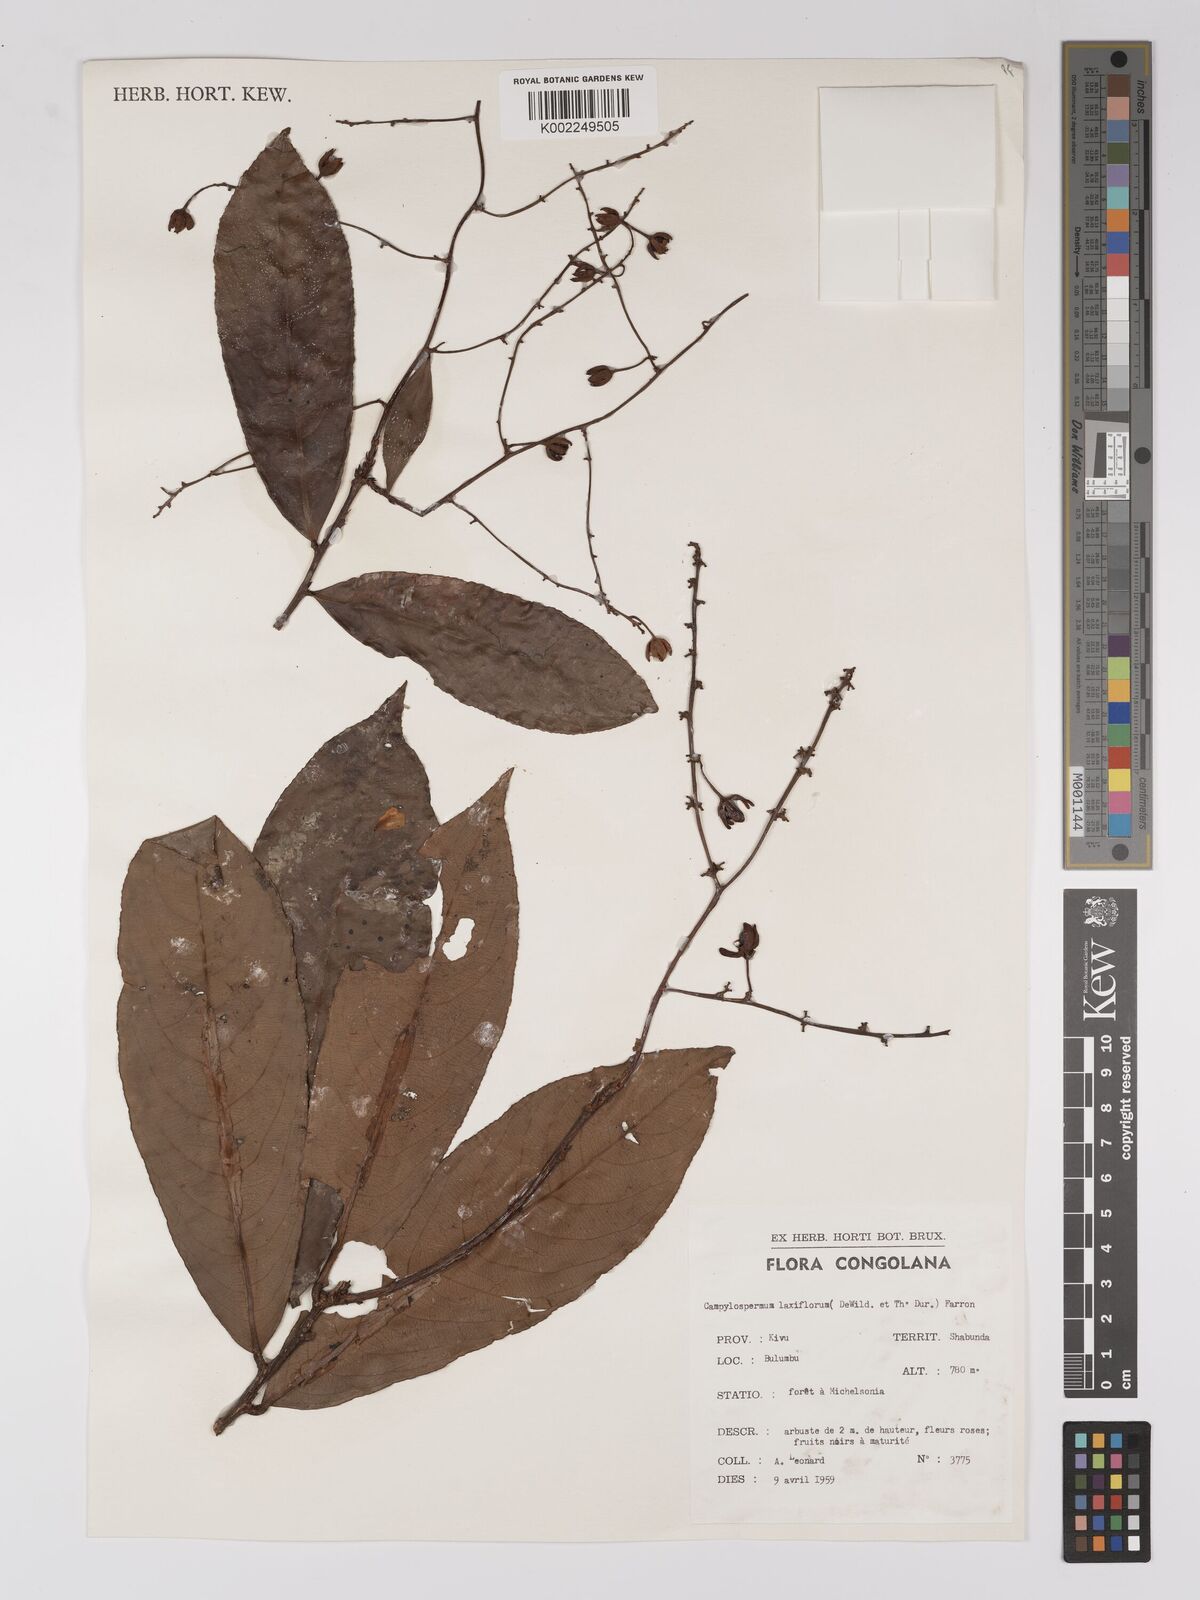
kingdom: Plantae
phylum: Tracheophyta
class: Magnoliopsida
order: Malpighiales
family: Ochnaceae
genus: Campylospermum
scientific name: Campylospermum laxiflorum
